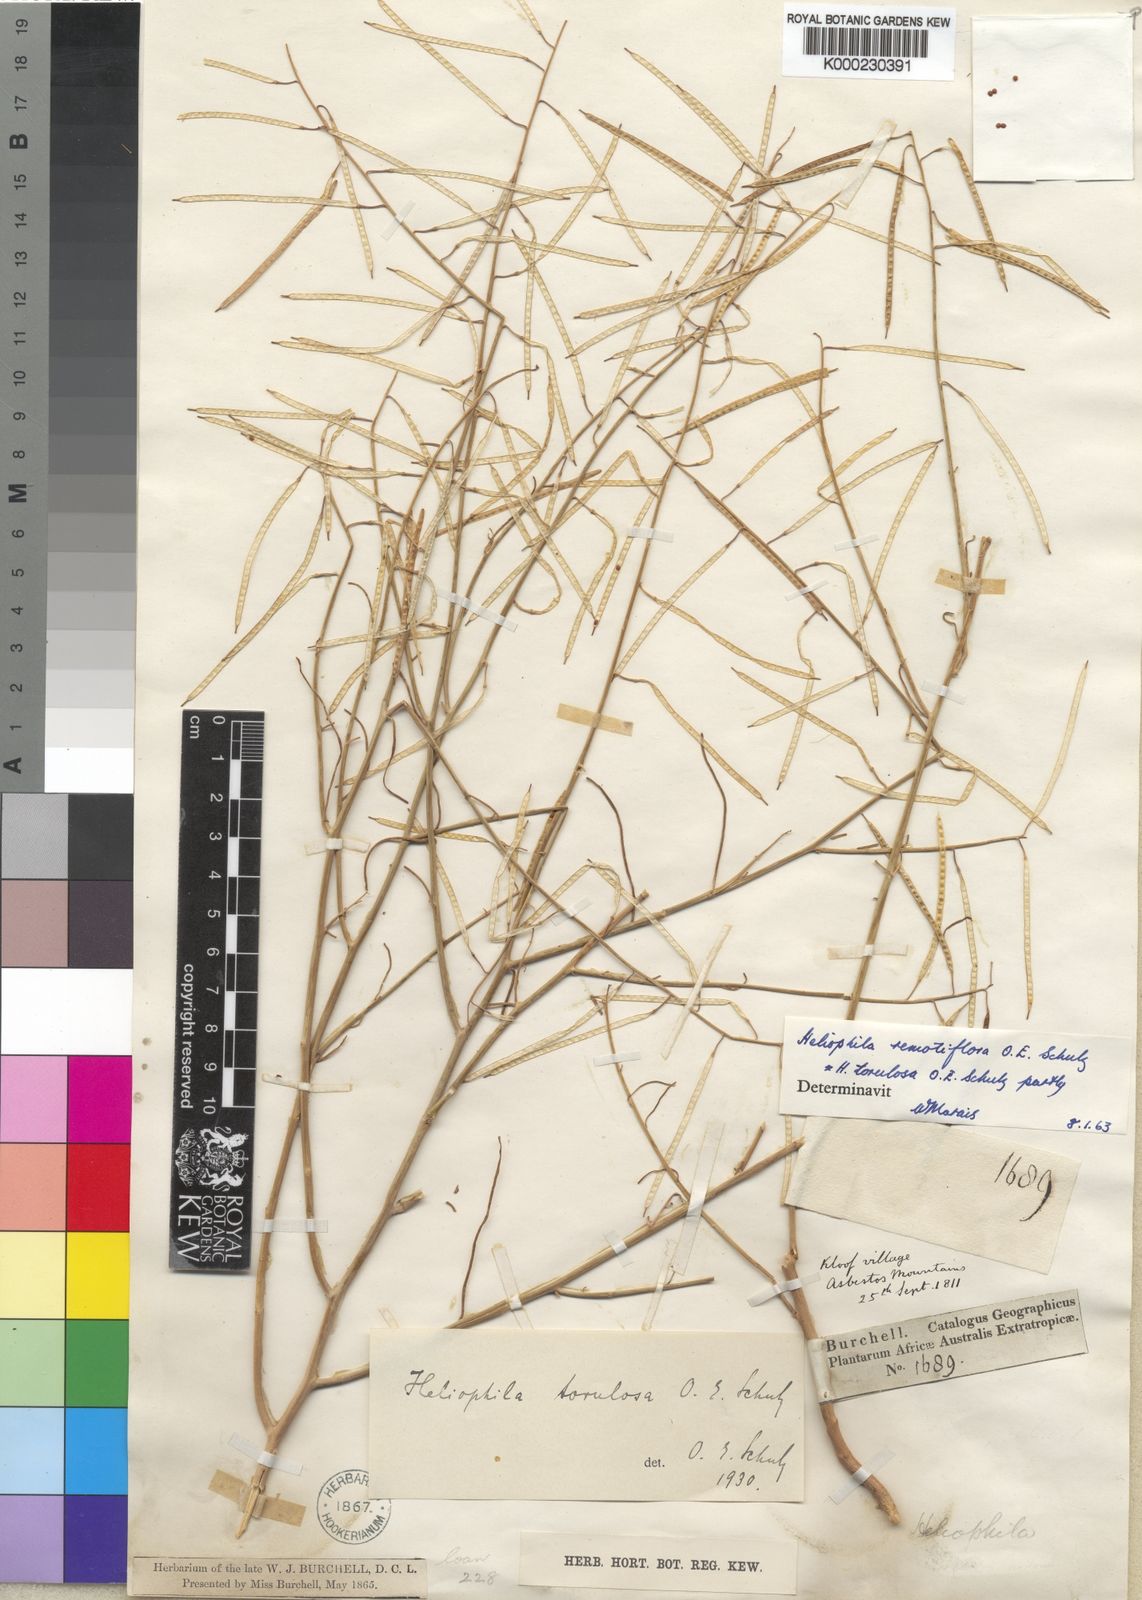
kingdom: Plantae
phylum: Tracheophyta
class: Magnoliopsida
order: Brassicales
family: Brassicaceae
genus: Heliophila
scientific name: Heliophila remotiflora
